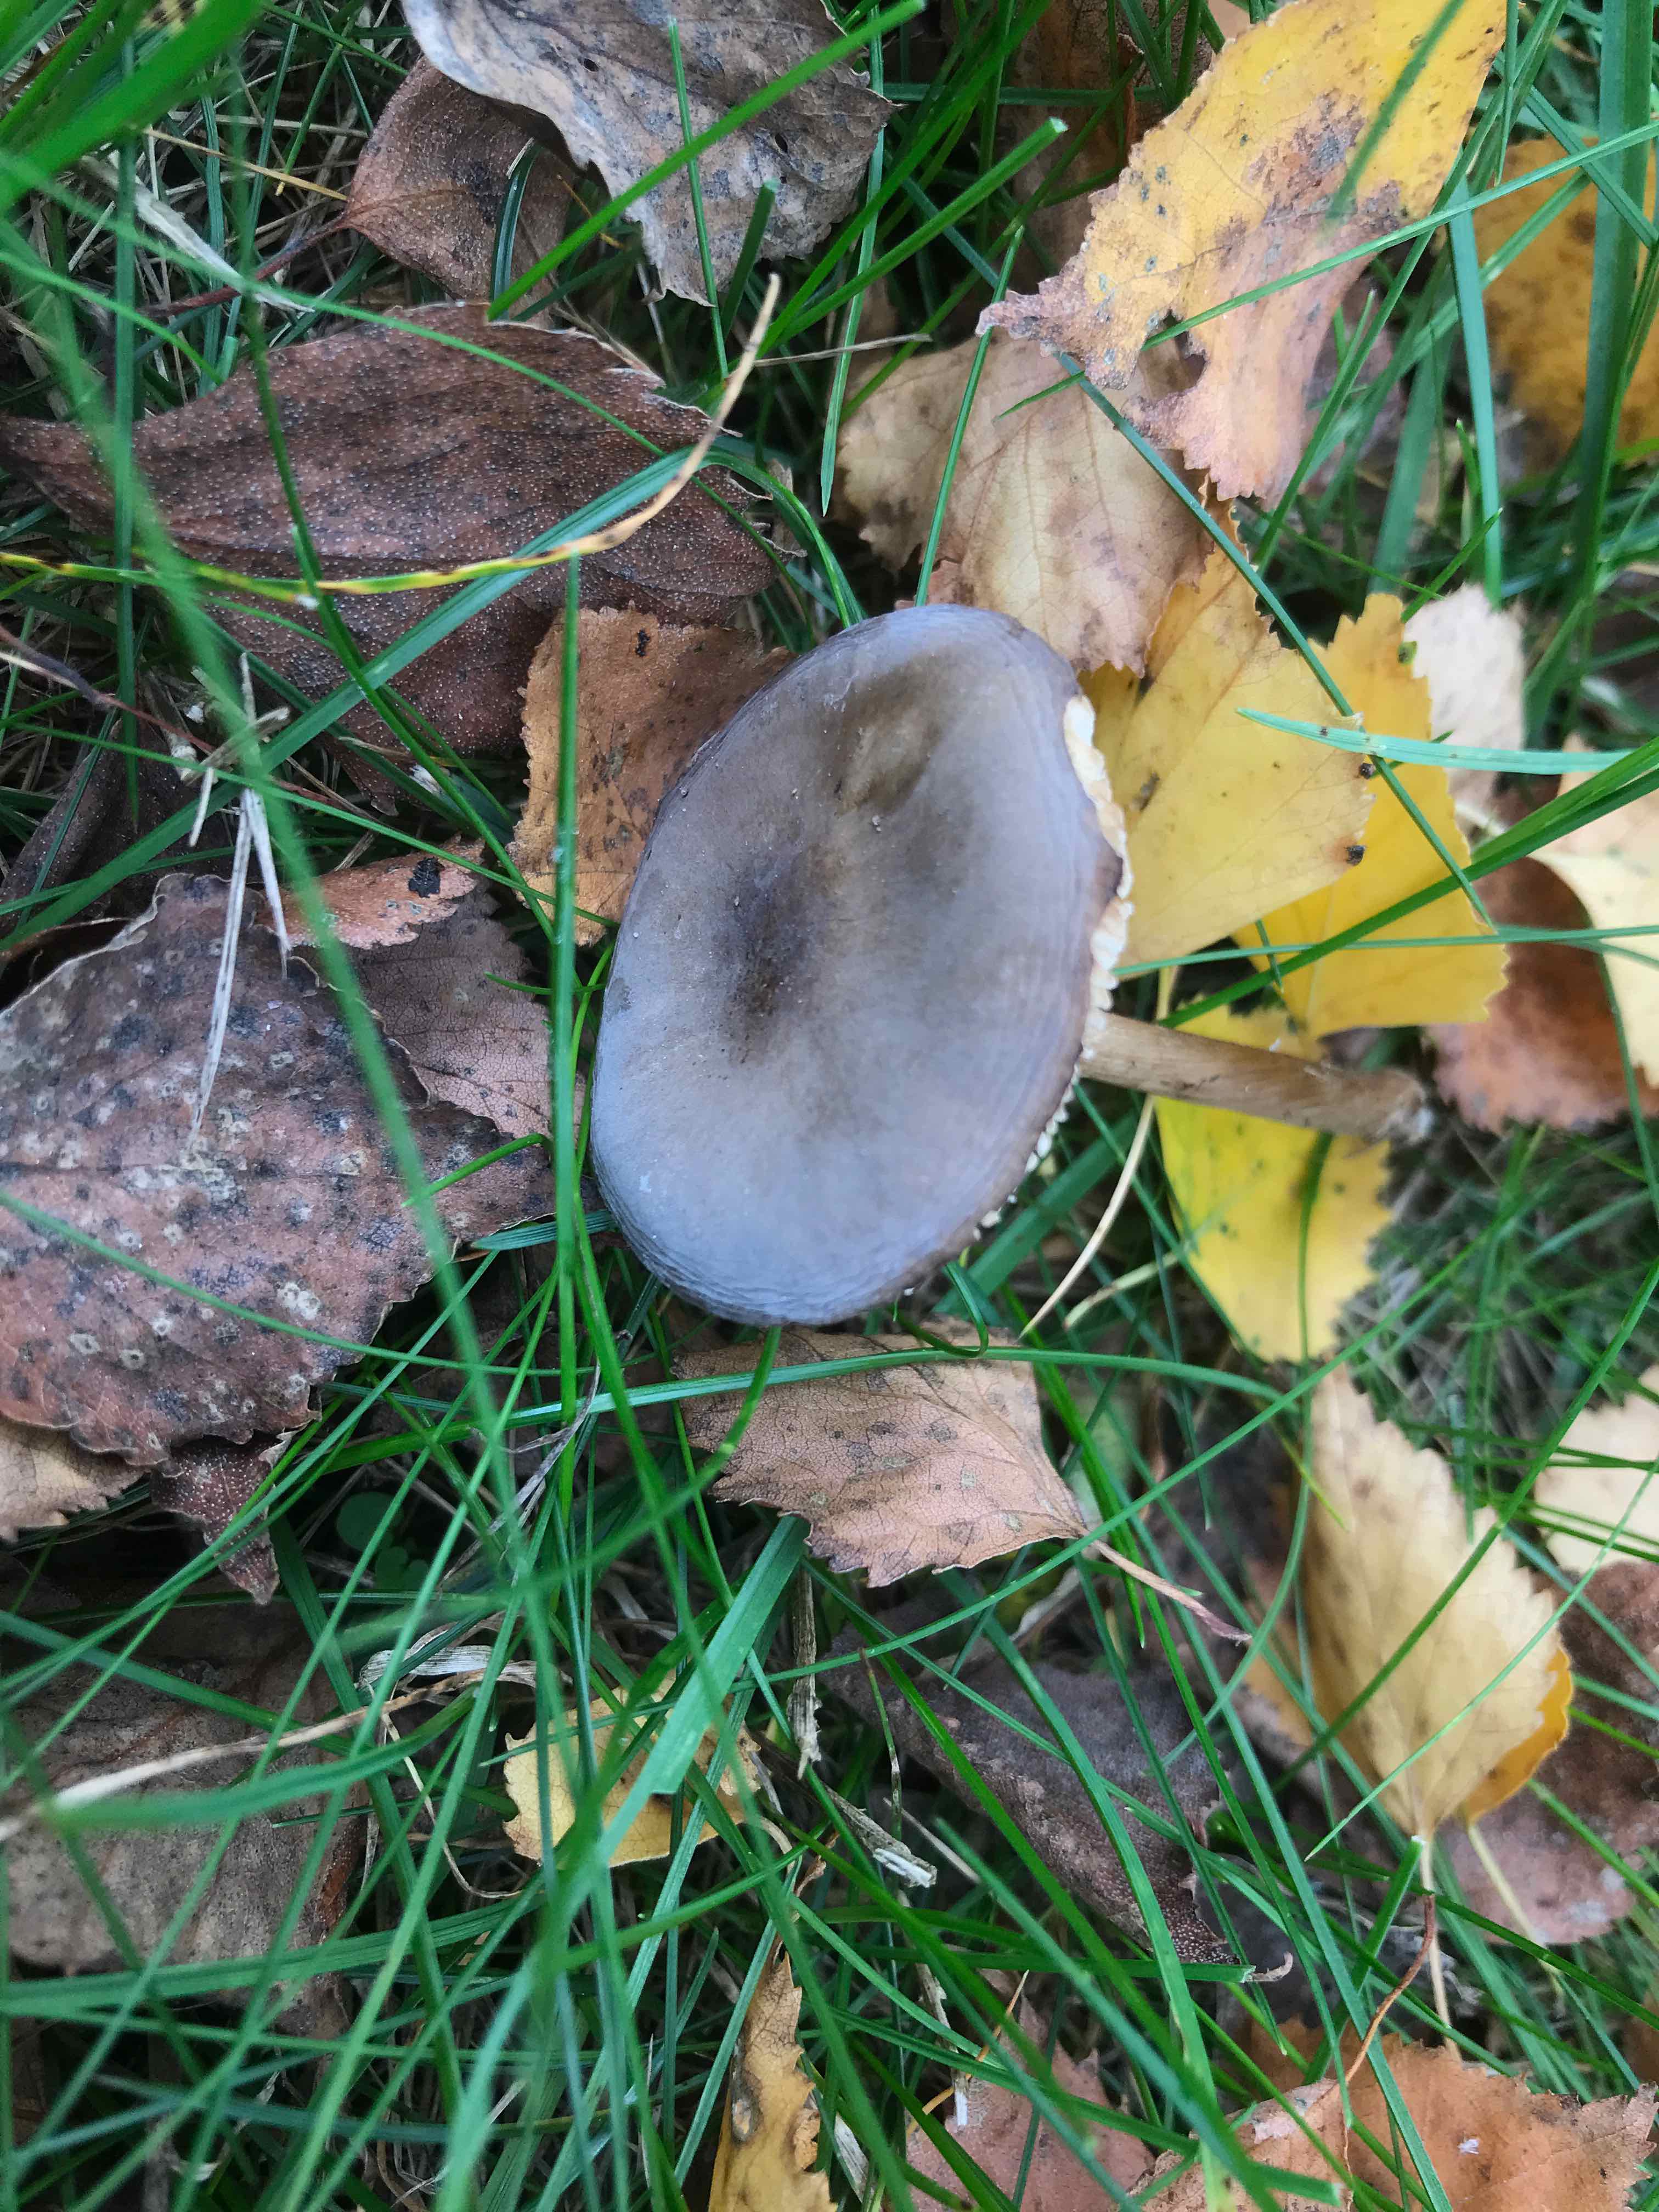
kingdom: Fungi
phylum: Basidiomycota
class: Agaricomycetes
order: Agaricales
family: Tricholomataceae
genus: Melanoleuca
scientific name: Melanoleuca
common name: munkehat
